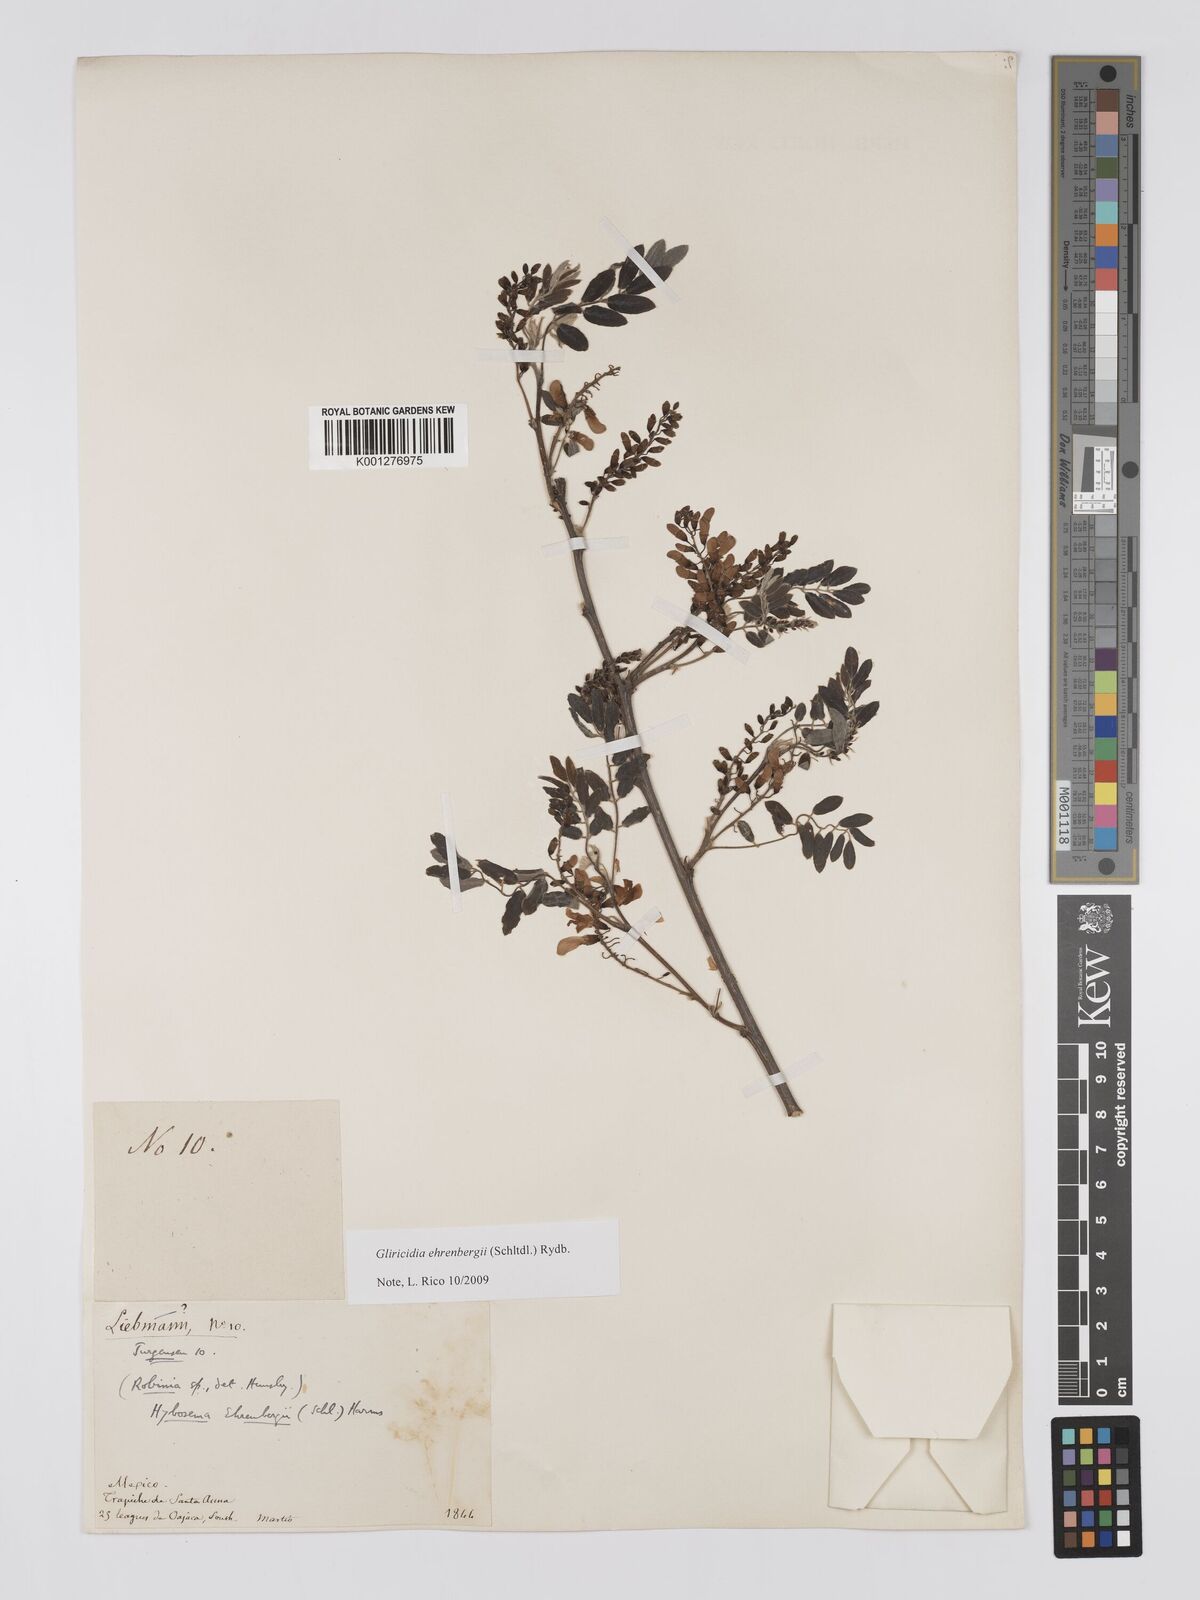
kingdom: Plantae
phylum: Tracheophyta
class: Magnoliopsida
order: Fabales
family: Fabaceae
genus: Gliricidia
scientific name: Gliricidia ehrenbergii
